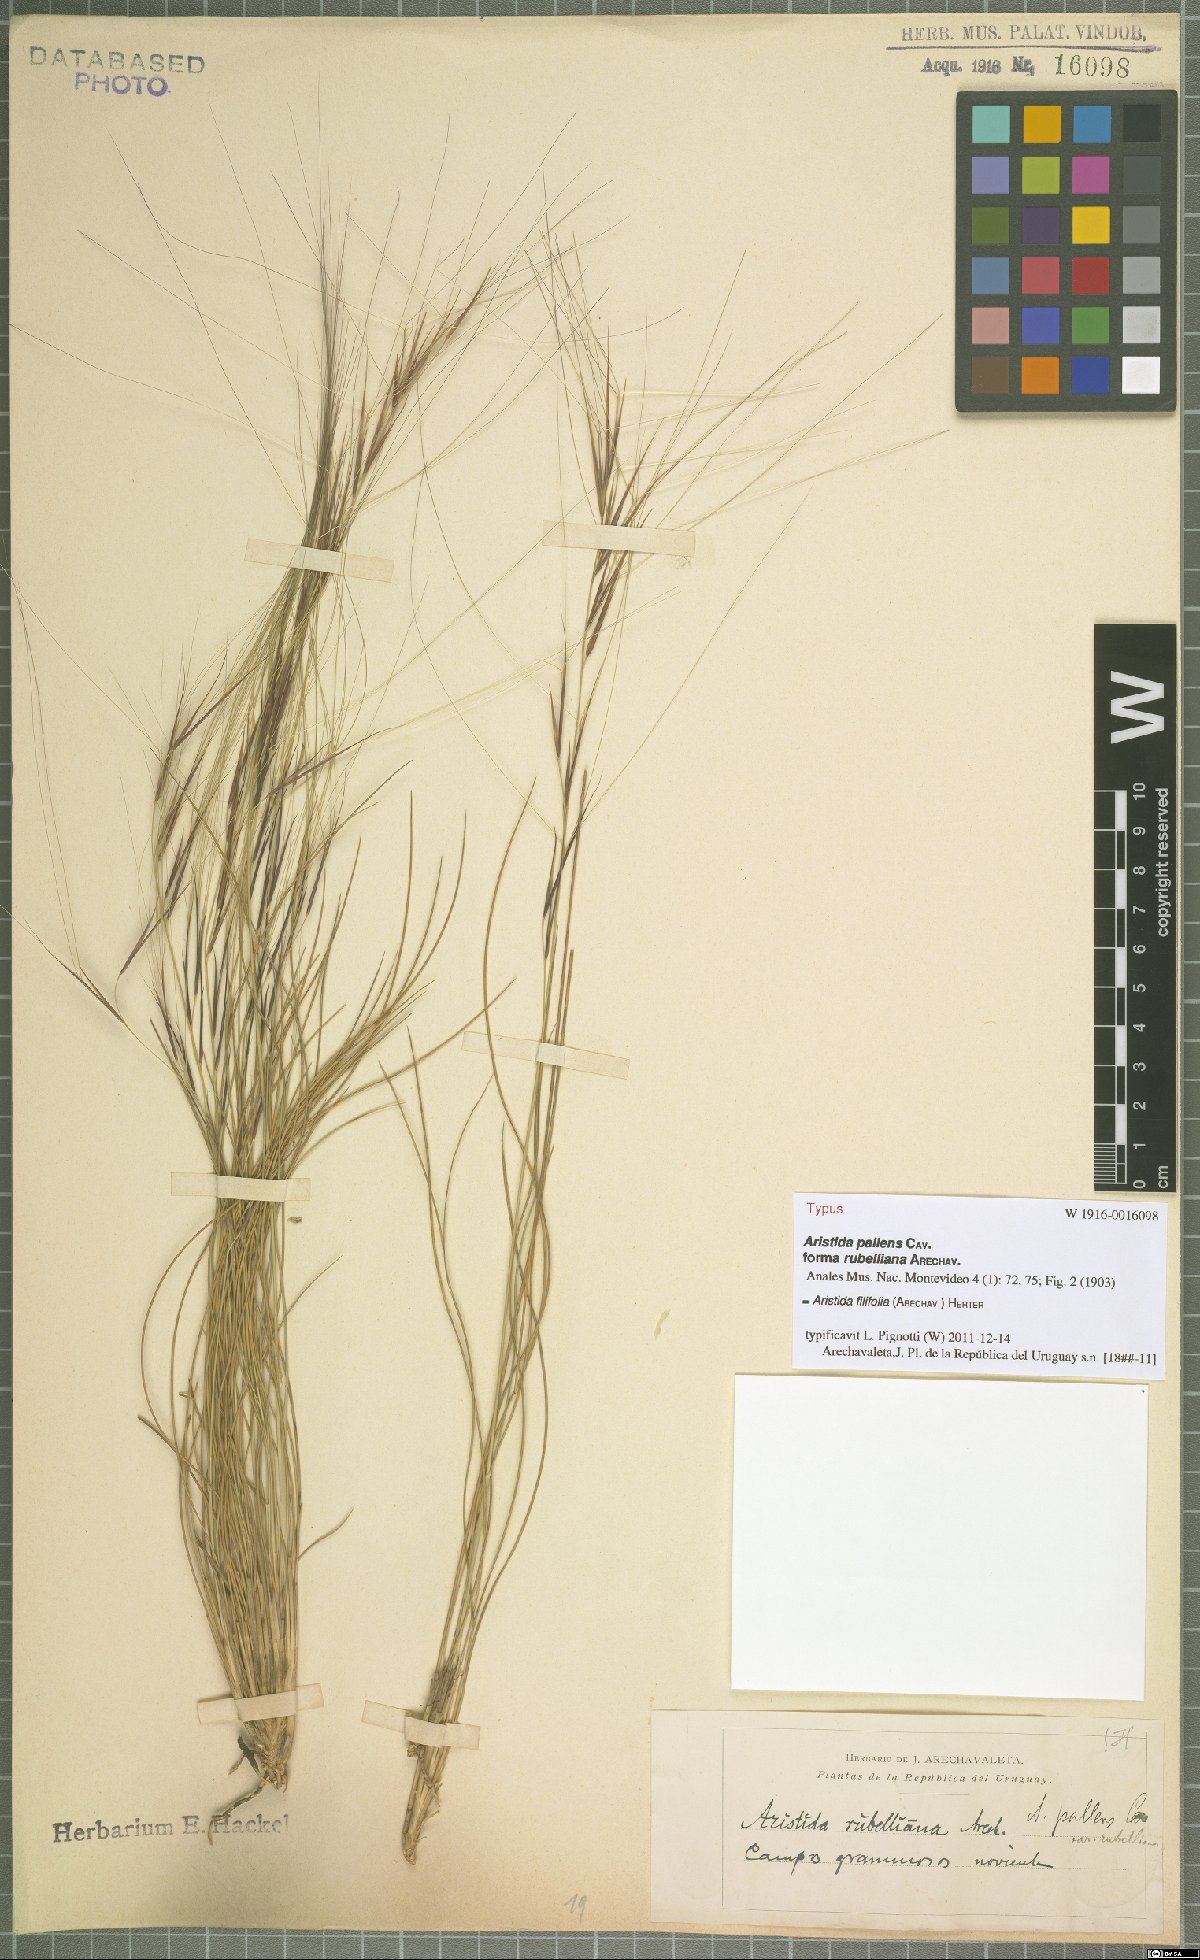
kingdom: Plantae
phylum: Tracheophyta
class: Liliopsida
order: Poales
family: Poaceae
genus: Aristida
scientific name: Aristida filifolia
